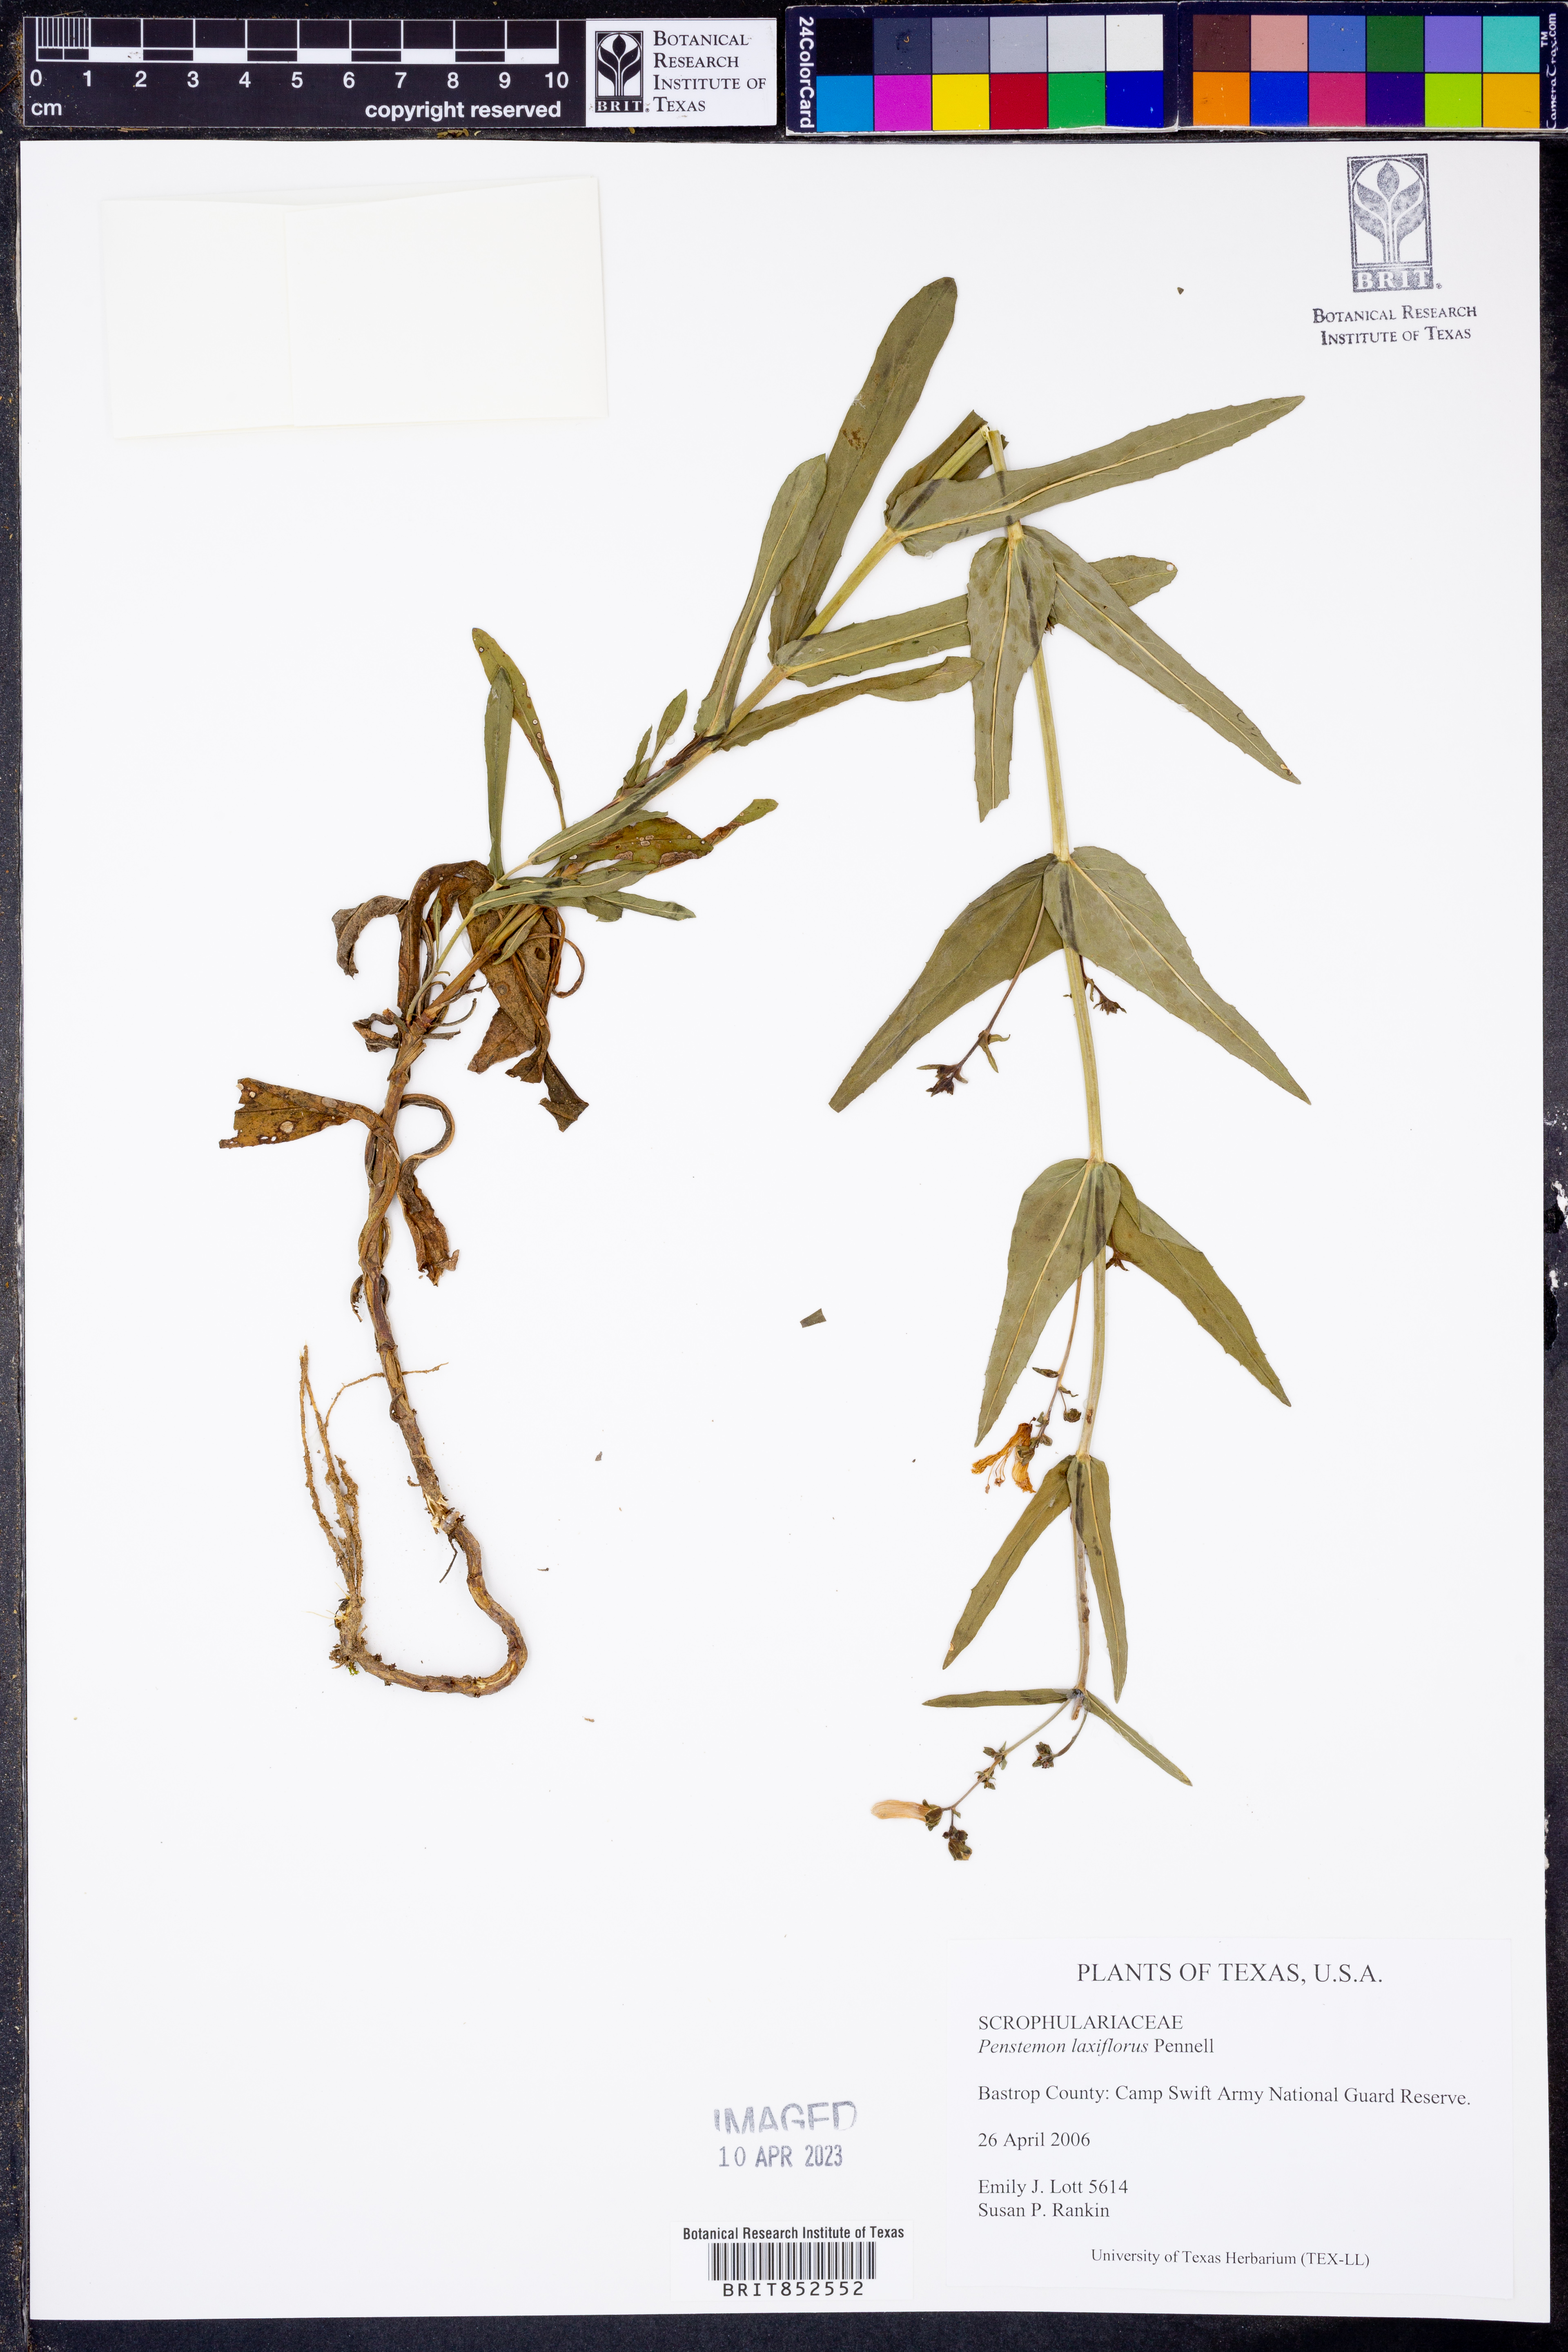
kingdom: Plantae
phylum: Tracheophyta
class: Magnoliopsida
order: Lamiales
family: Plantaginaceae
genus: Penstemon
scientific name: Penstemon laxiflorus
